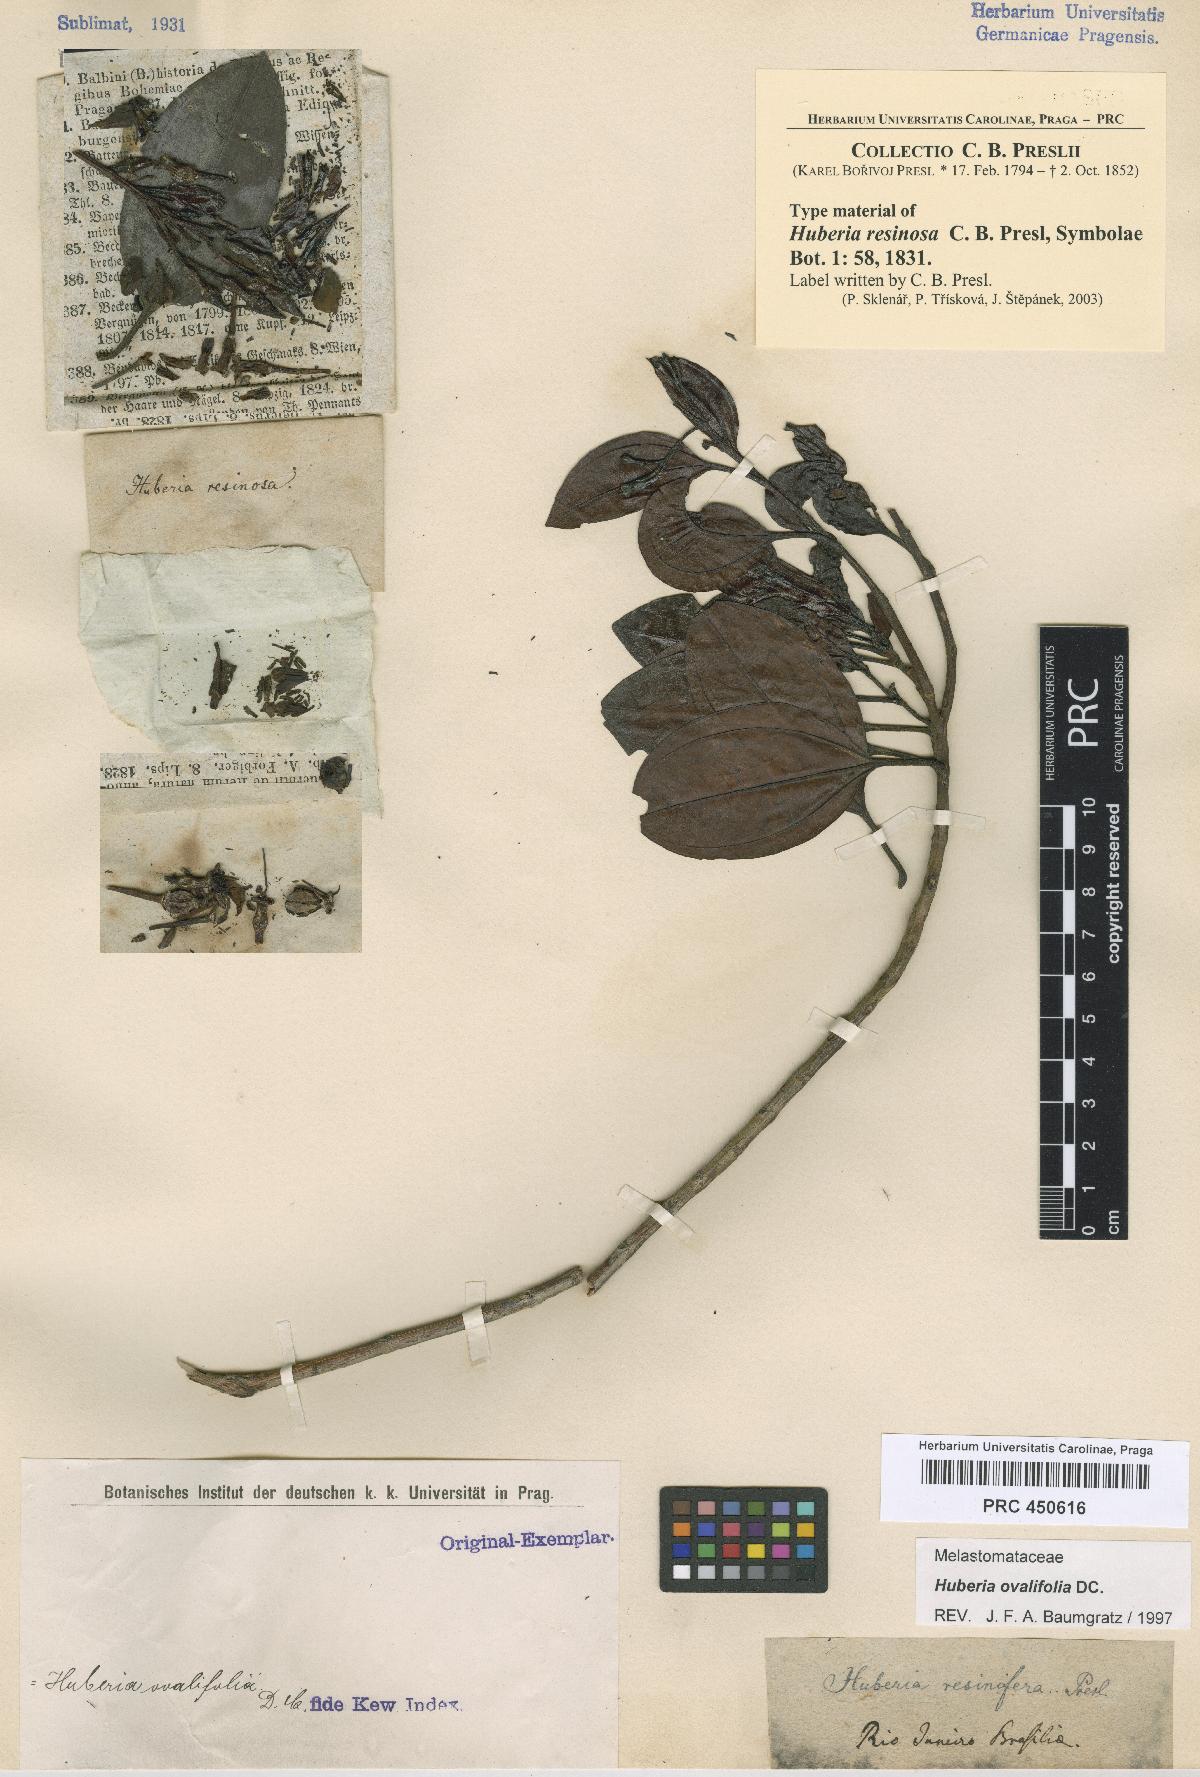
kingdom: Plantae
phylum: Tracheophyta
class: Magnoliopsida
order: Myrtales
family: Melastomataceae
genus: Huberia
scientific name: Huberia ovalifolia
